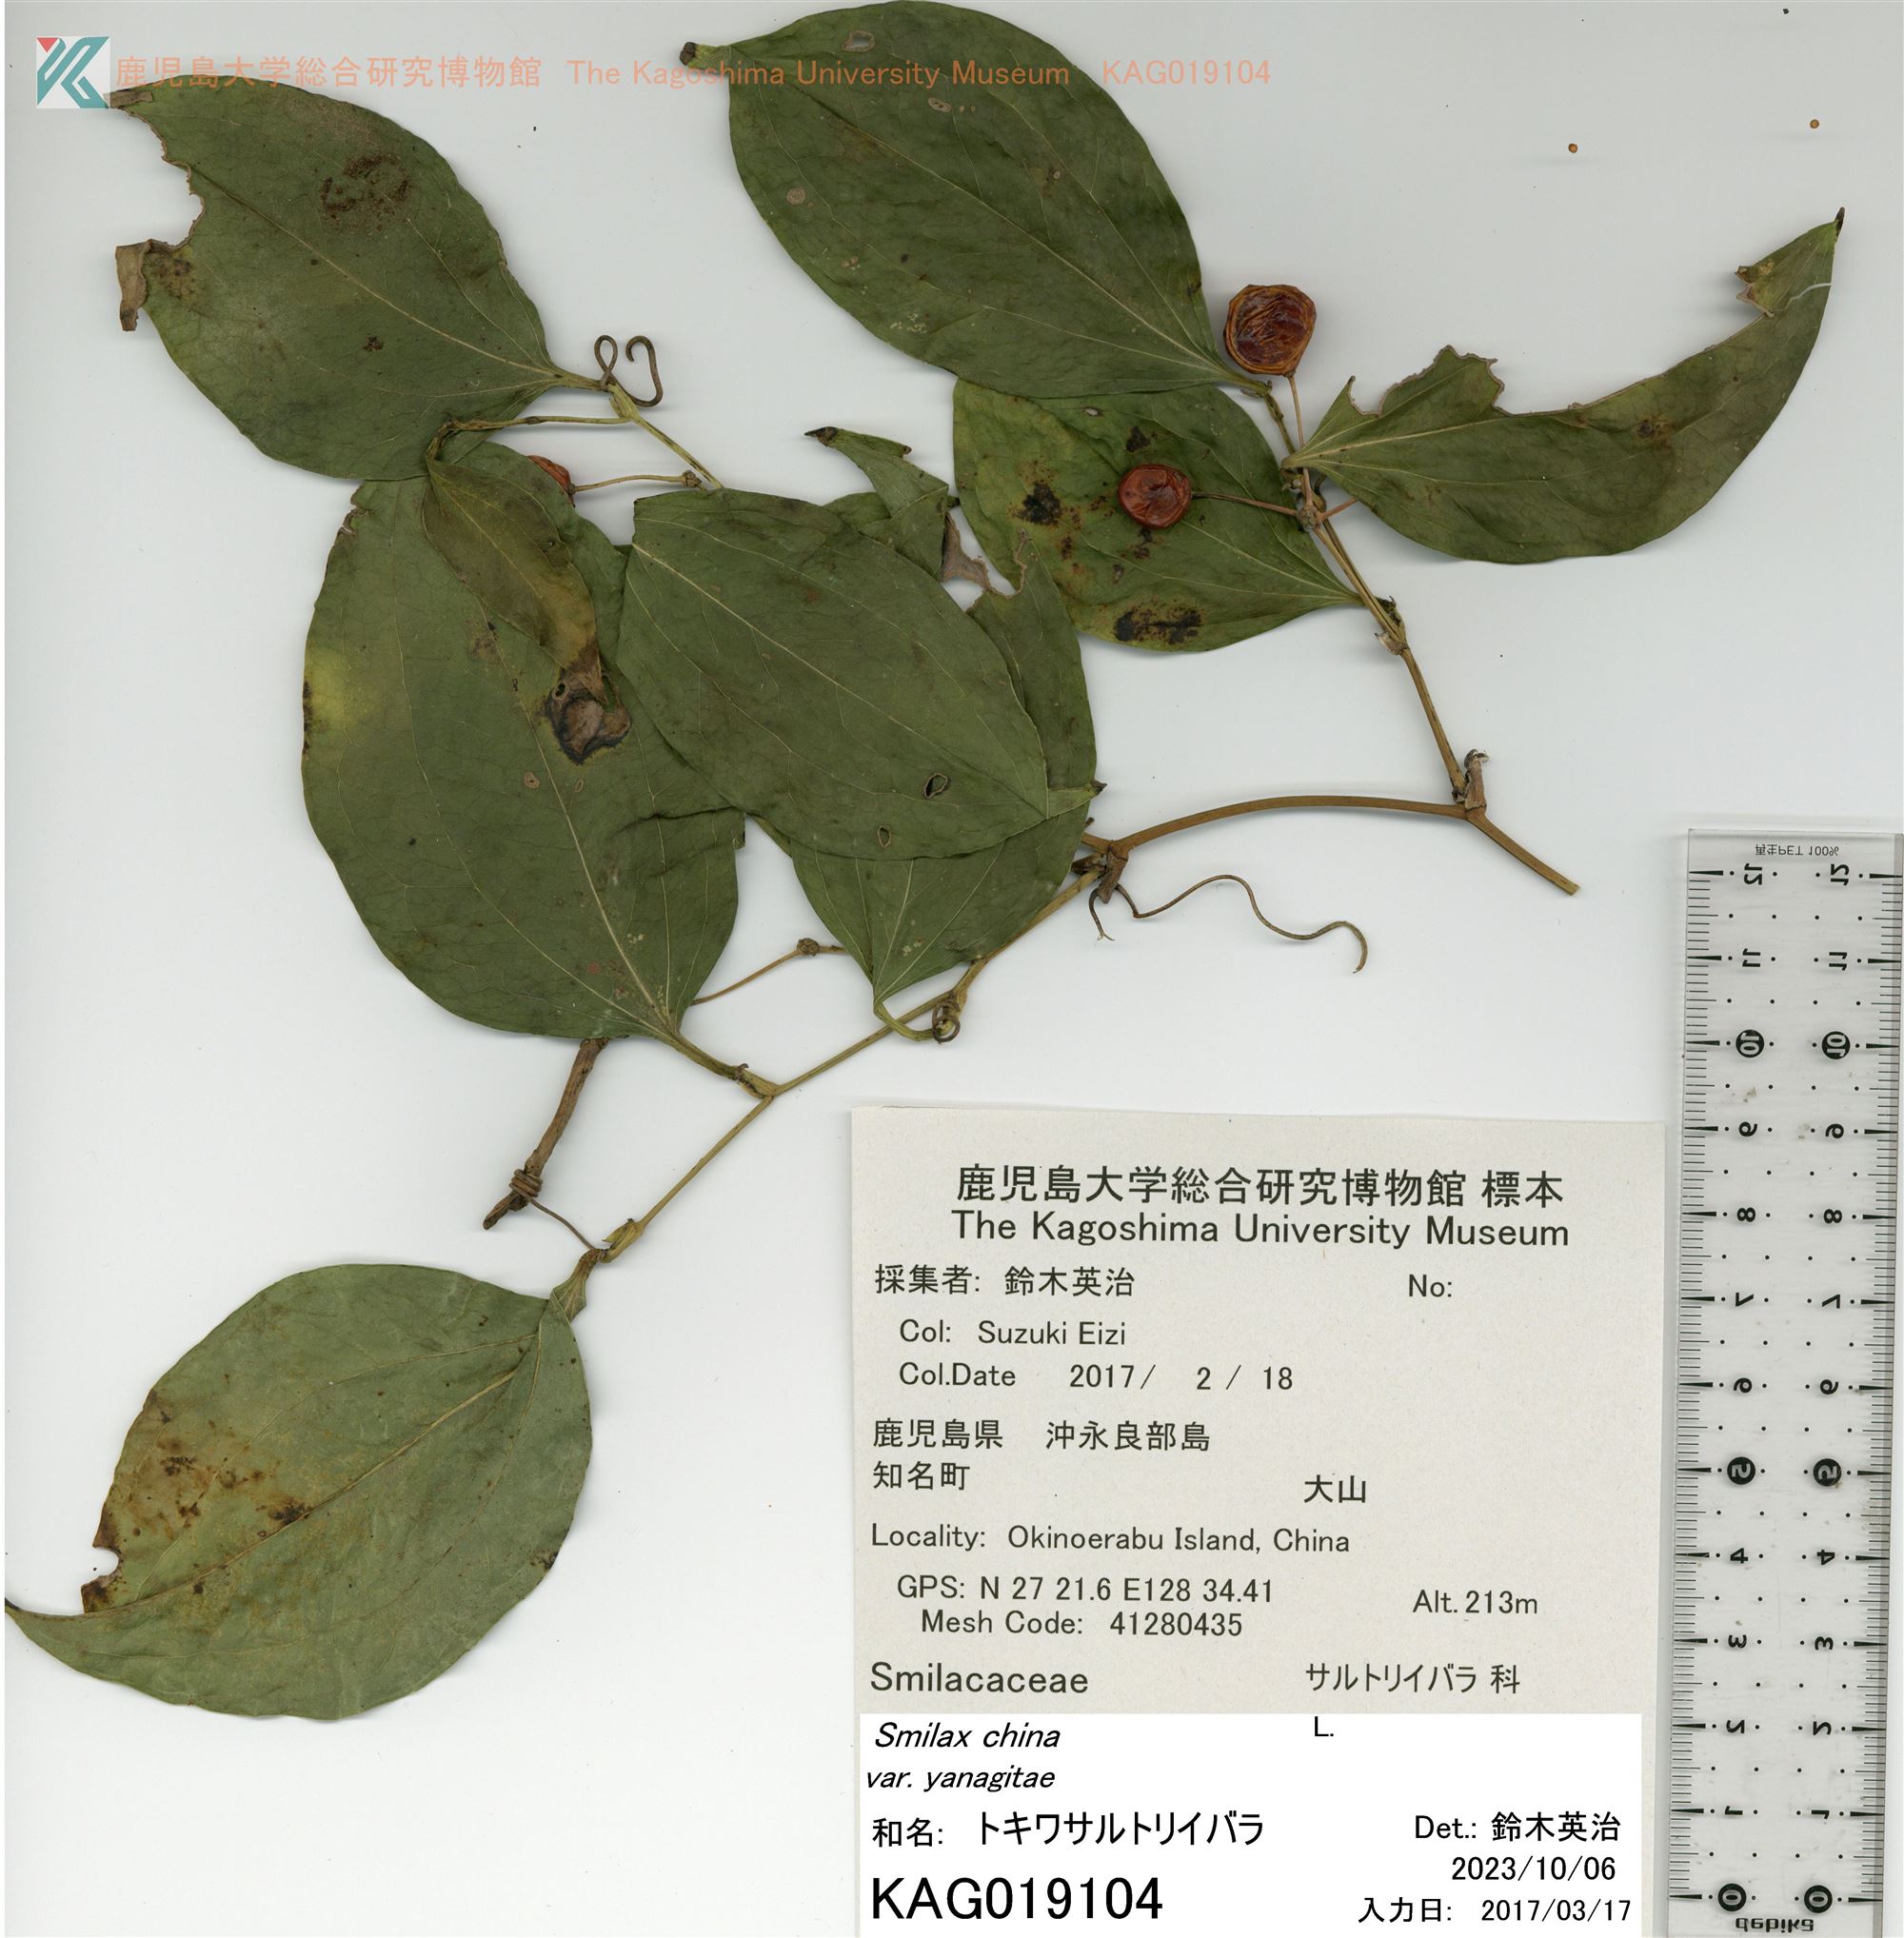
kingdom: Plantae
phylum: Tracheophyta
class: Liliopsida
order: Liliales
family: Smilacaceae
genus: Smilax
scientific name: Smilax sebeana
